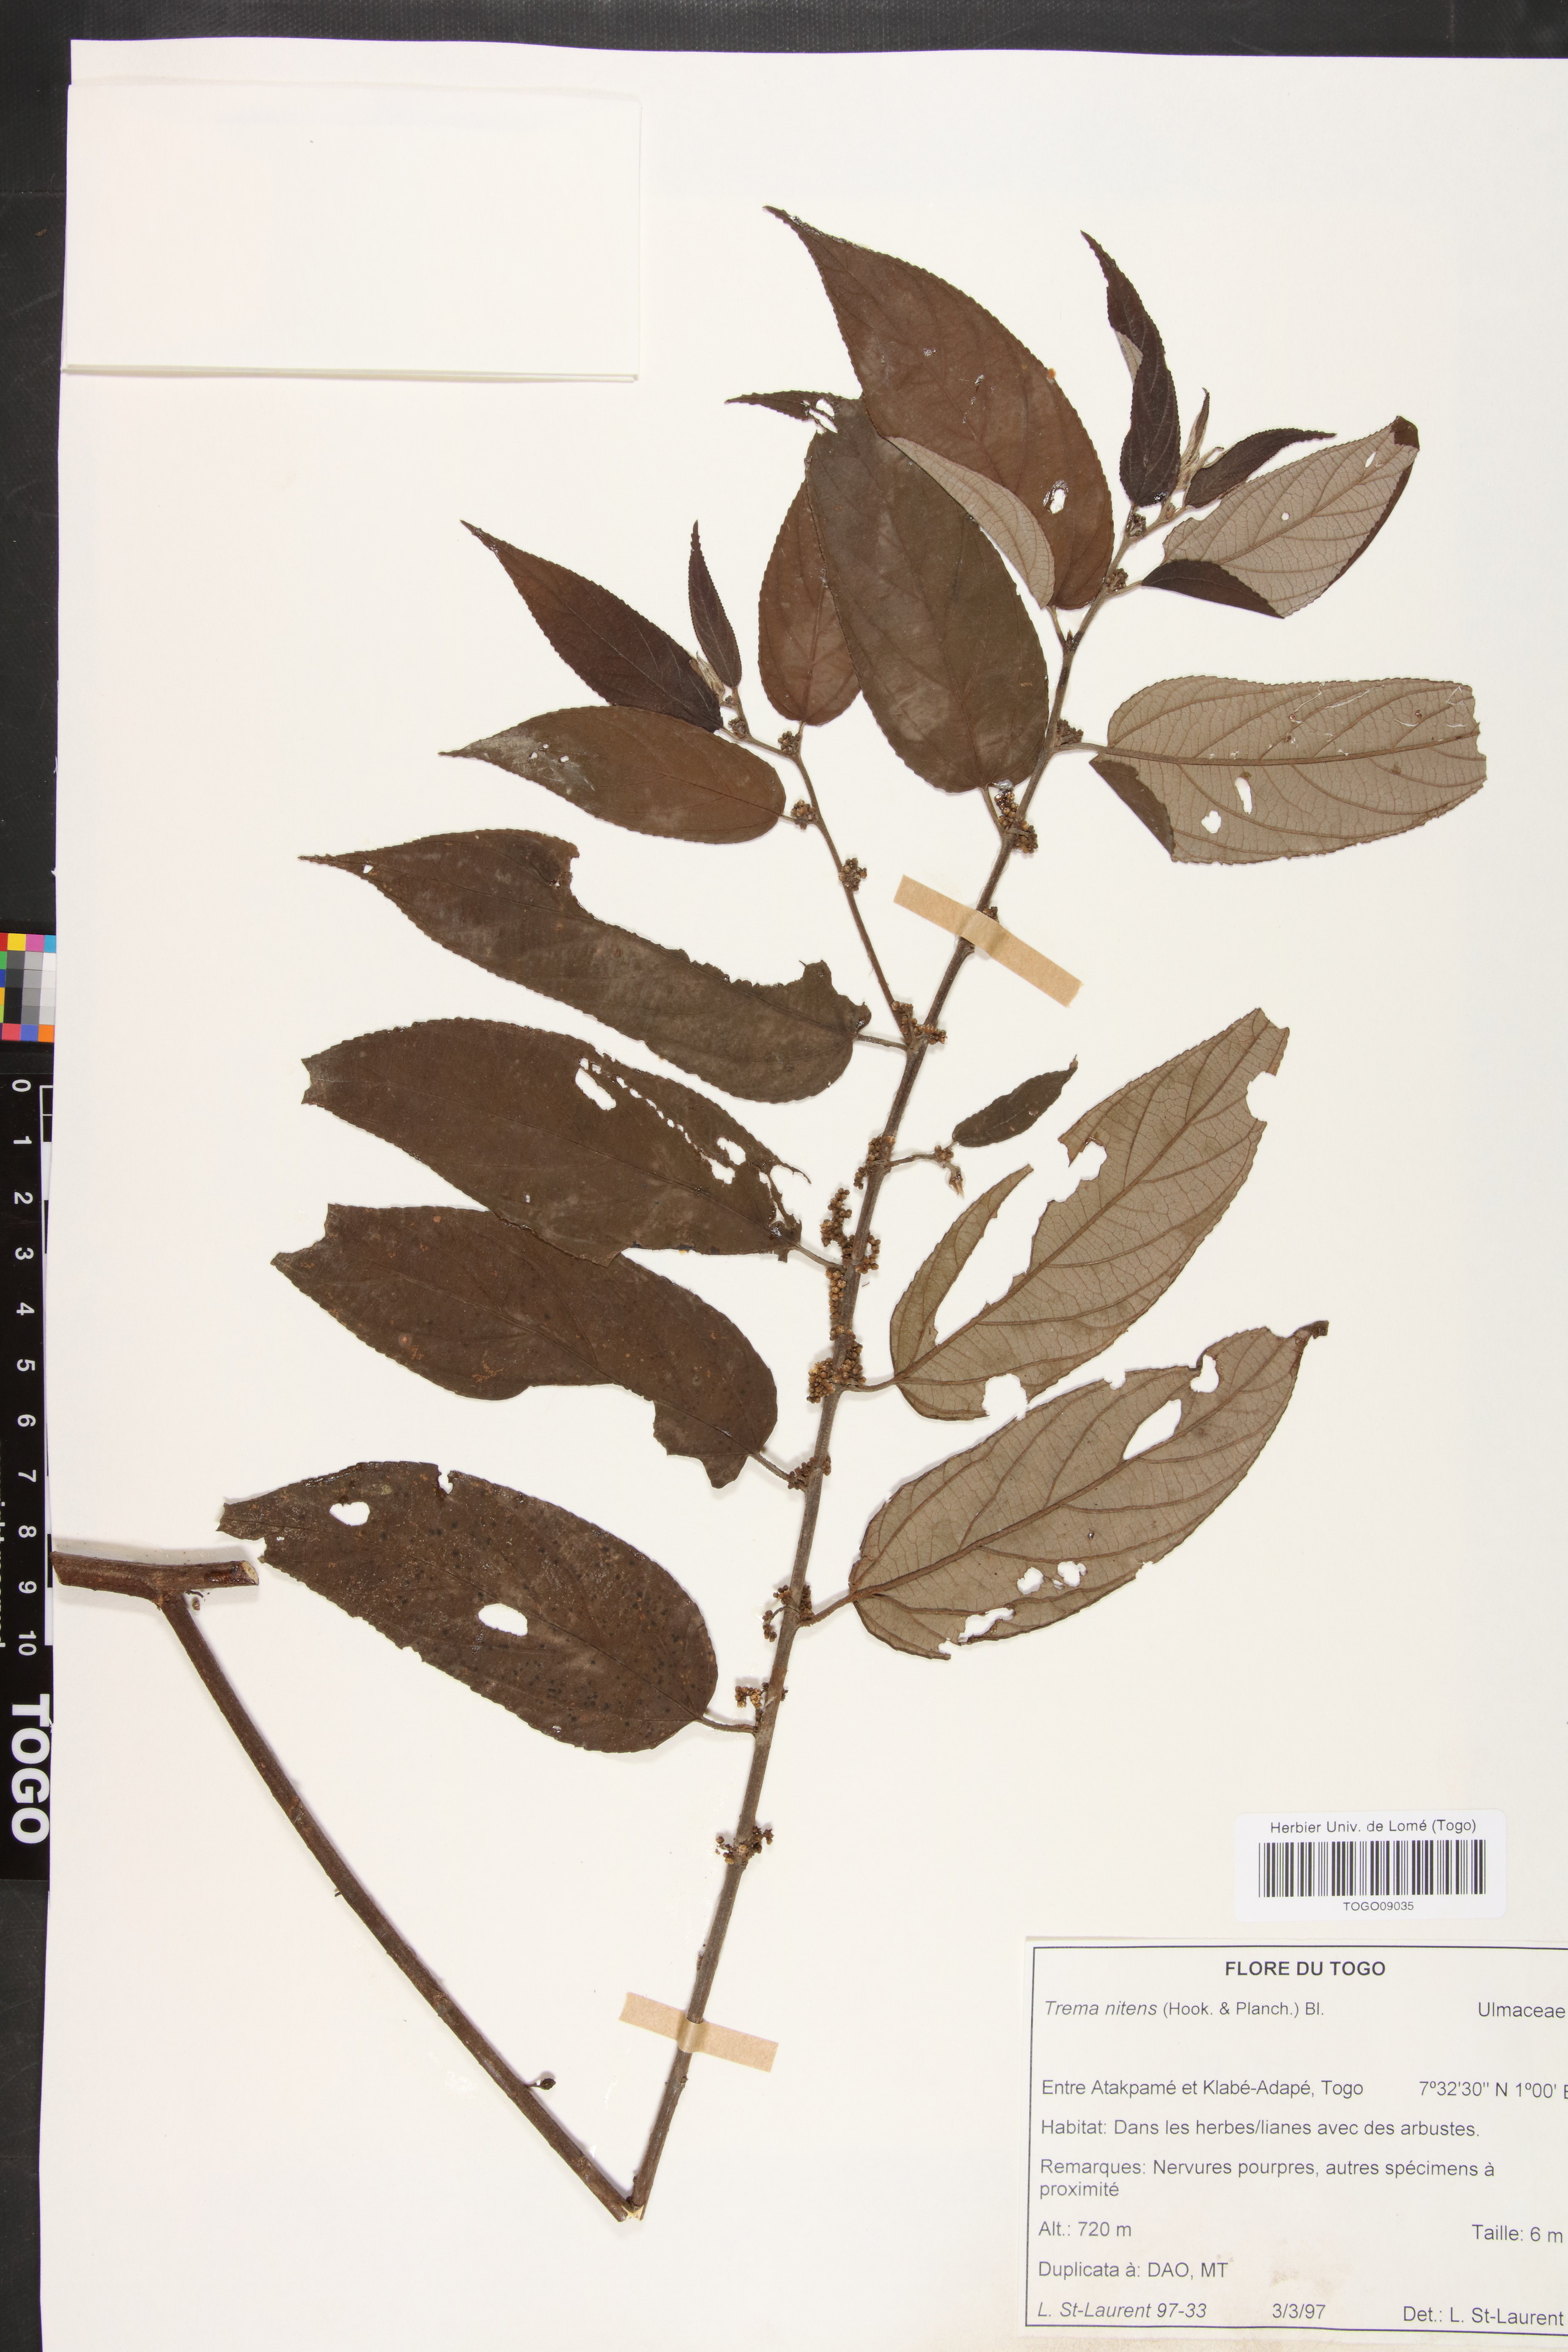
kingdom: Plantae
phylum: Tracheophyta
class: Magnoliopsida
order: Rosales
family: Cannabaceae
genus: Trema
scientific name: Trema orientale
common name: Indian charcoal tree
